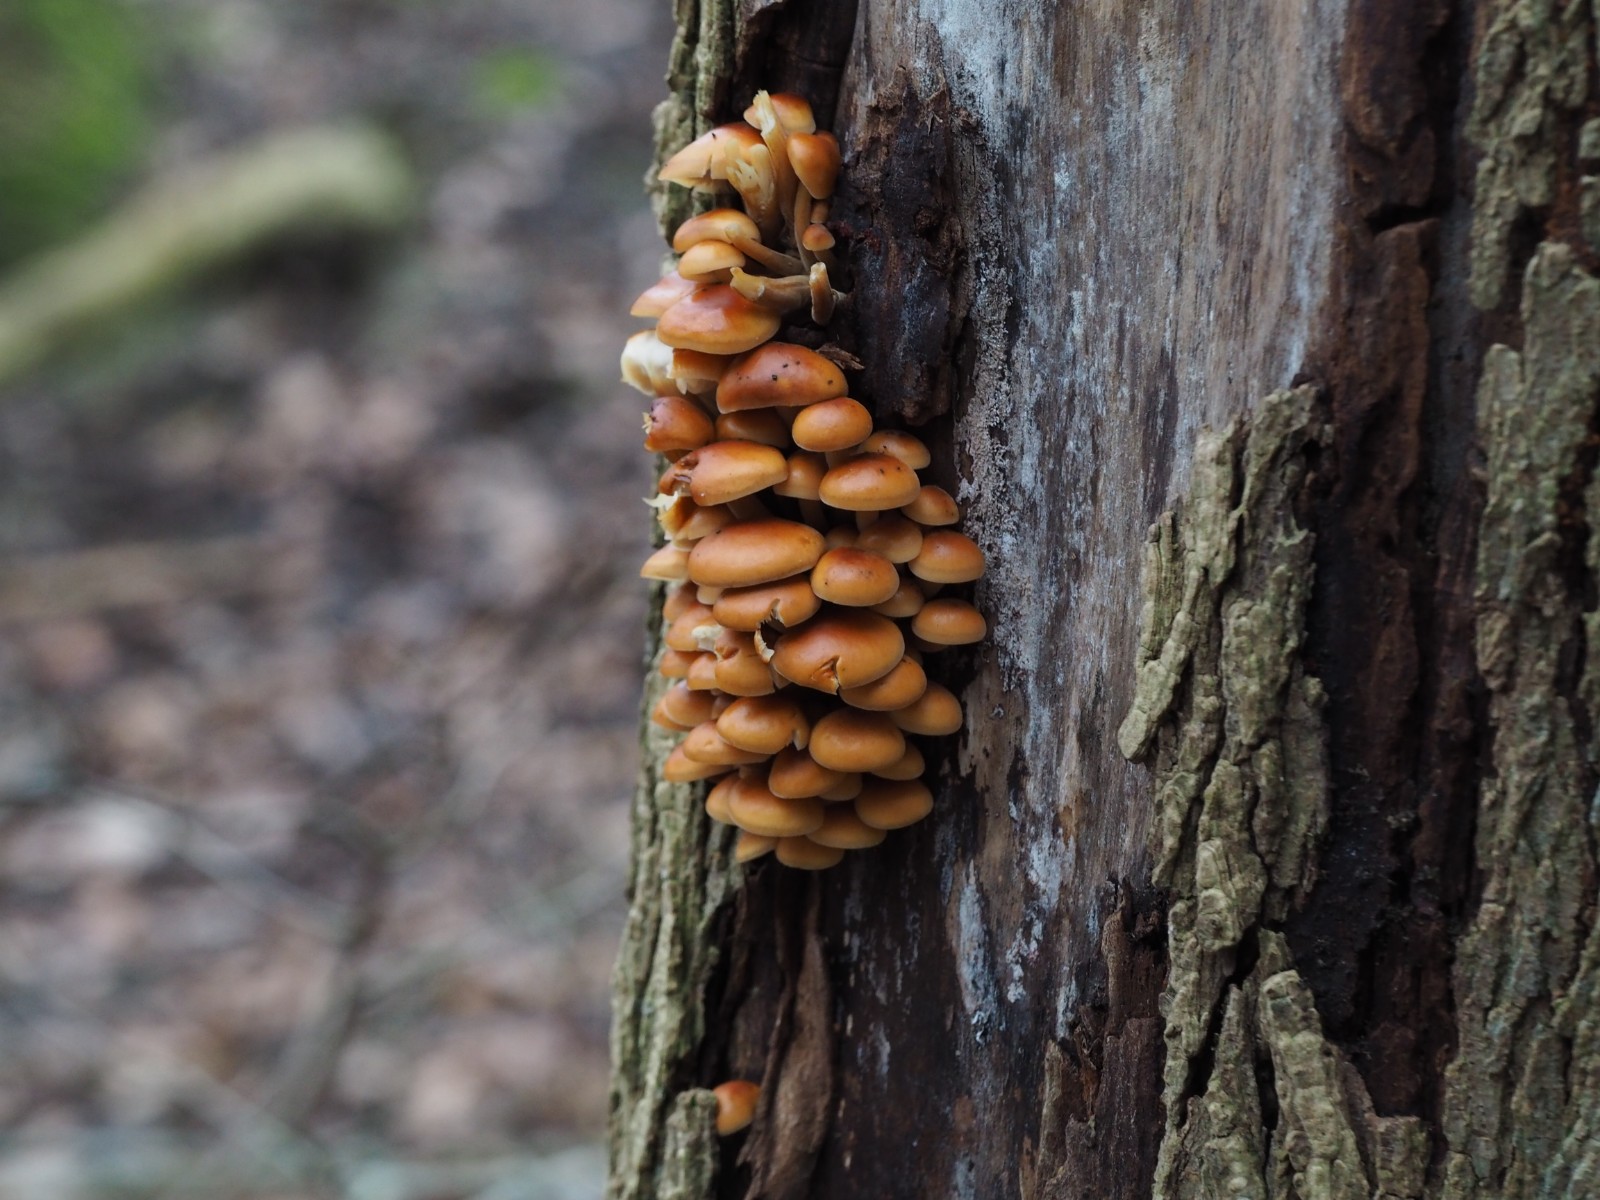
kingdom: Fungi
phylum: Basidiomycota
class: Agaricomycetes
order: Agaricales
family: Physalacriaceae
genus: Flammulina
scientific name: Flammulina velutipes
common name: gul fløjlsfod
